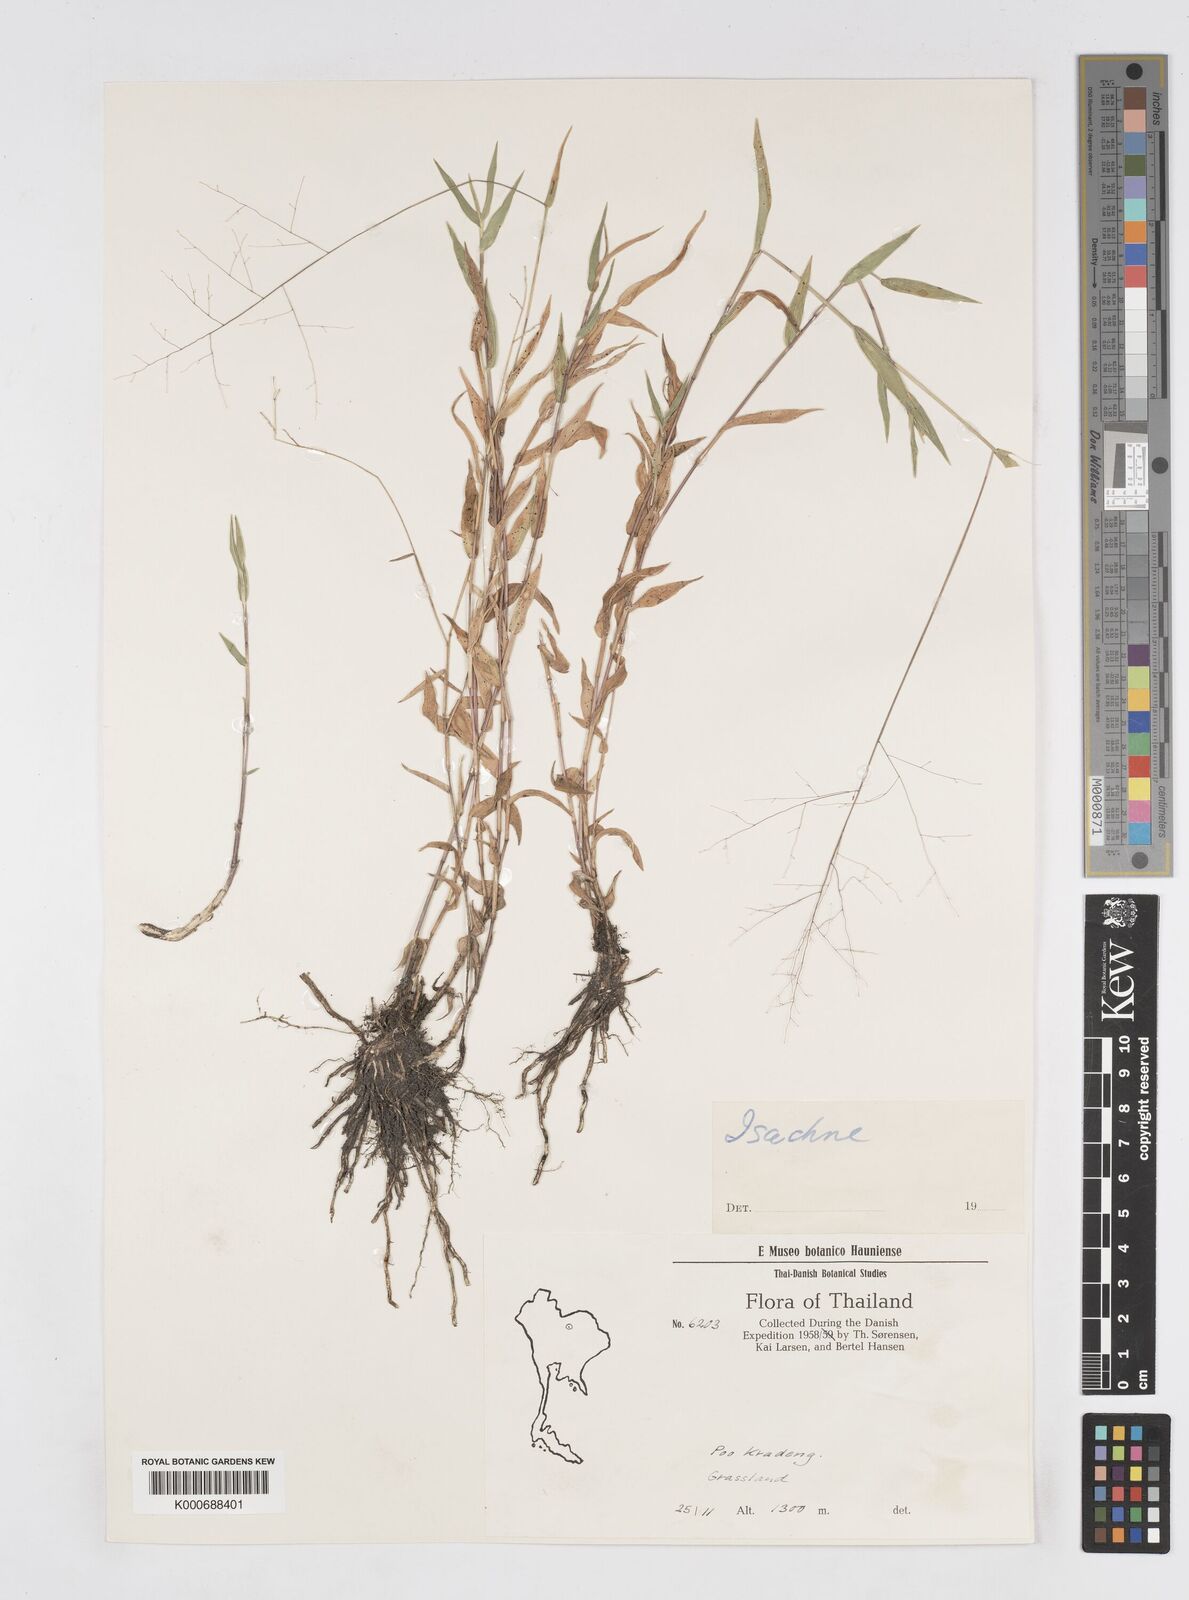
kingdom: Plantae
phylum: Tracheophyta
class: Liliopsida
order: Poales
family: Poaceae
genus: Isachne
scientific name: Isachne smitinandiana
